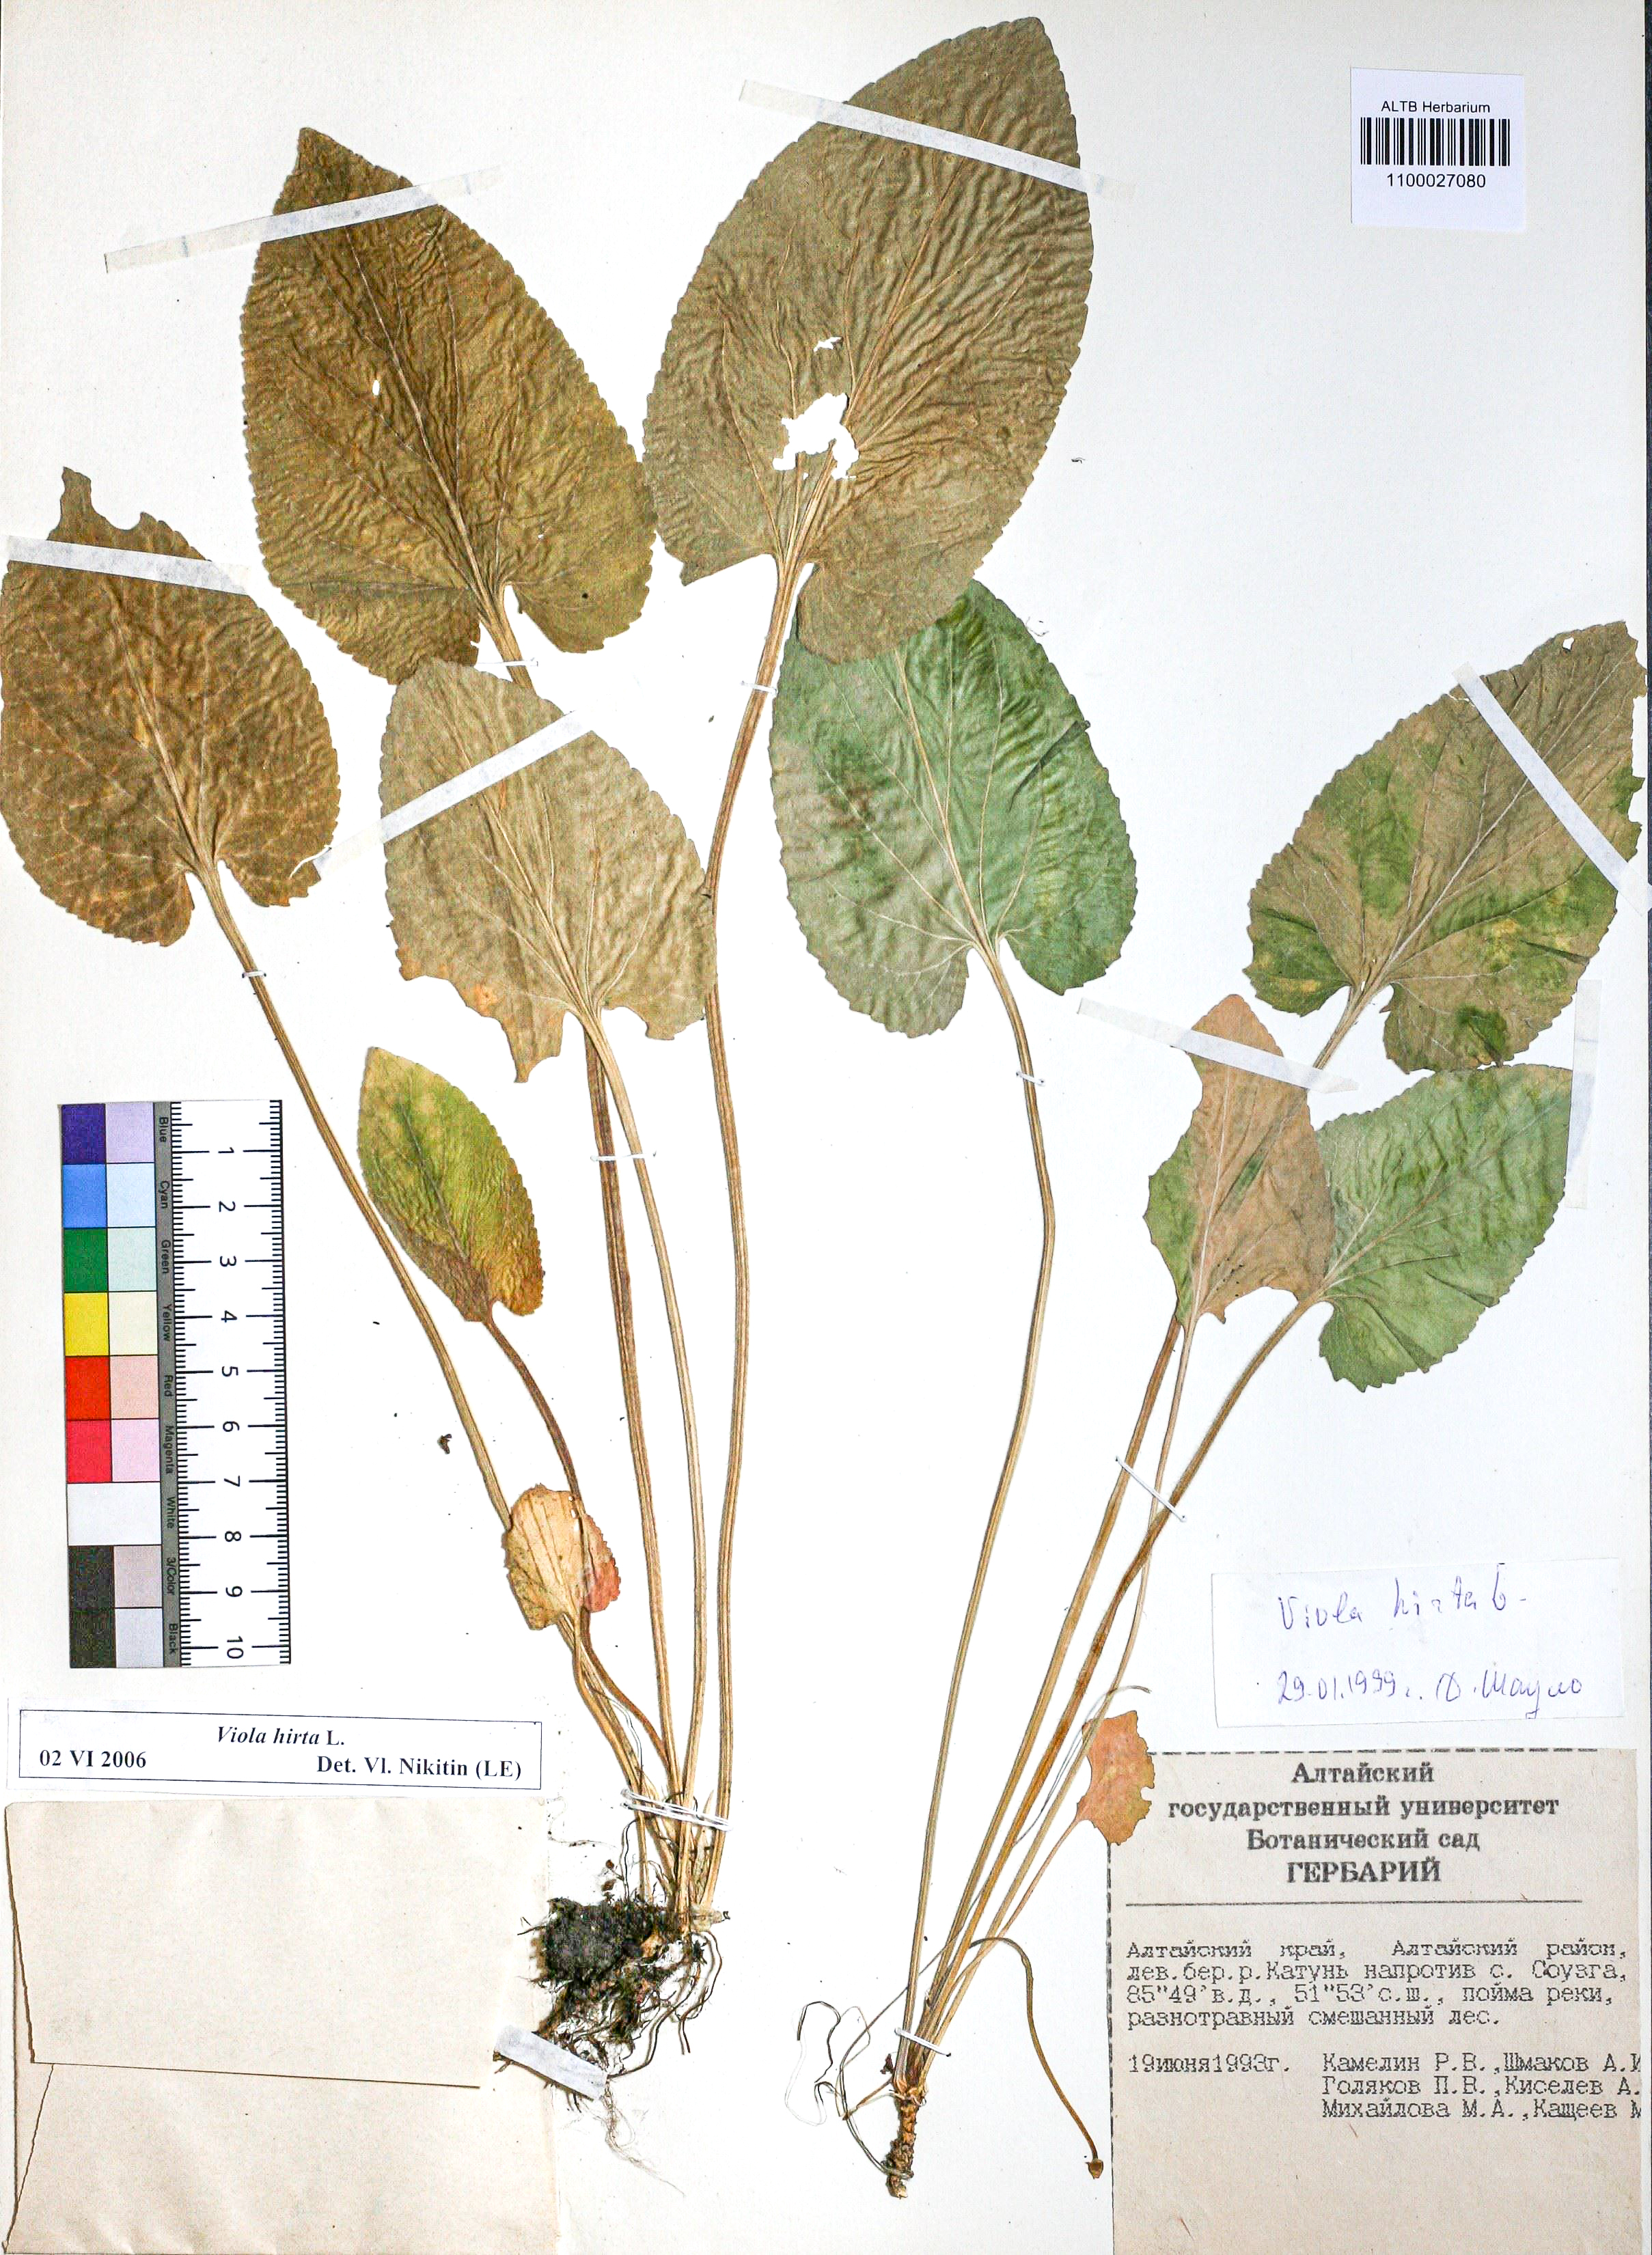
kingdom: Plantae
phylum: Tracheophyta
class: Magnoliopsida
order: Malpighiales
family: Violaceae
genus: Viola
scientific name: Viola hirta
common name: Hairy violet
